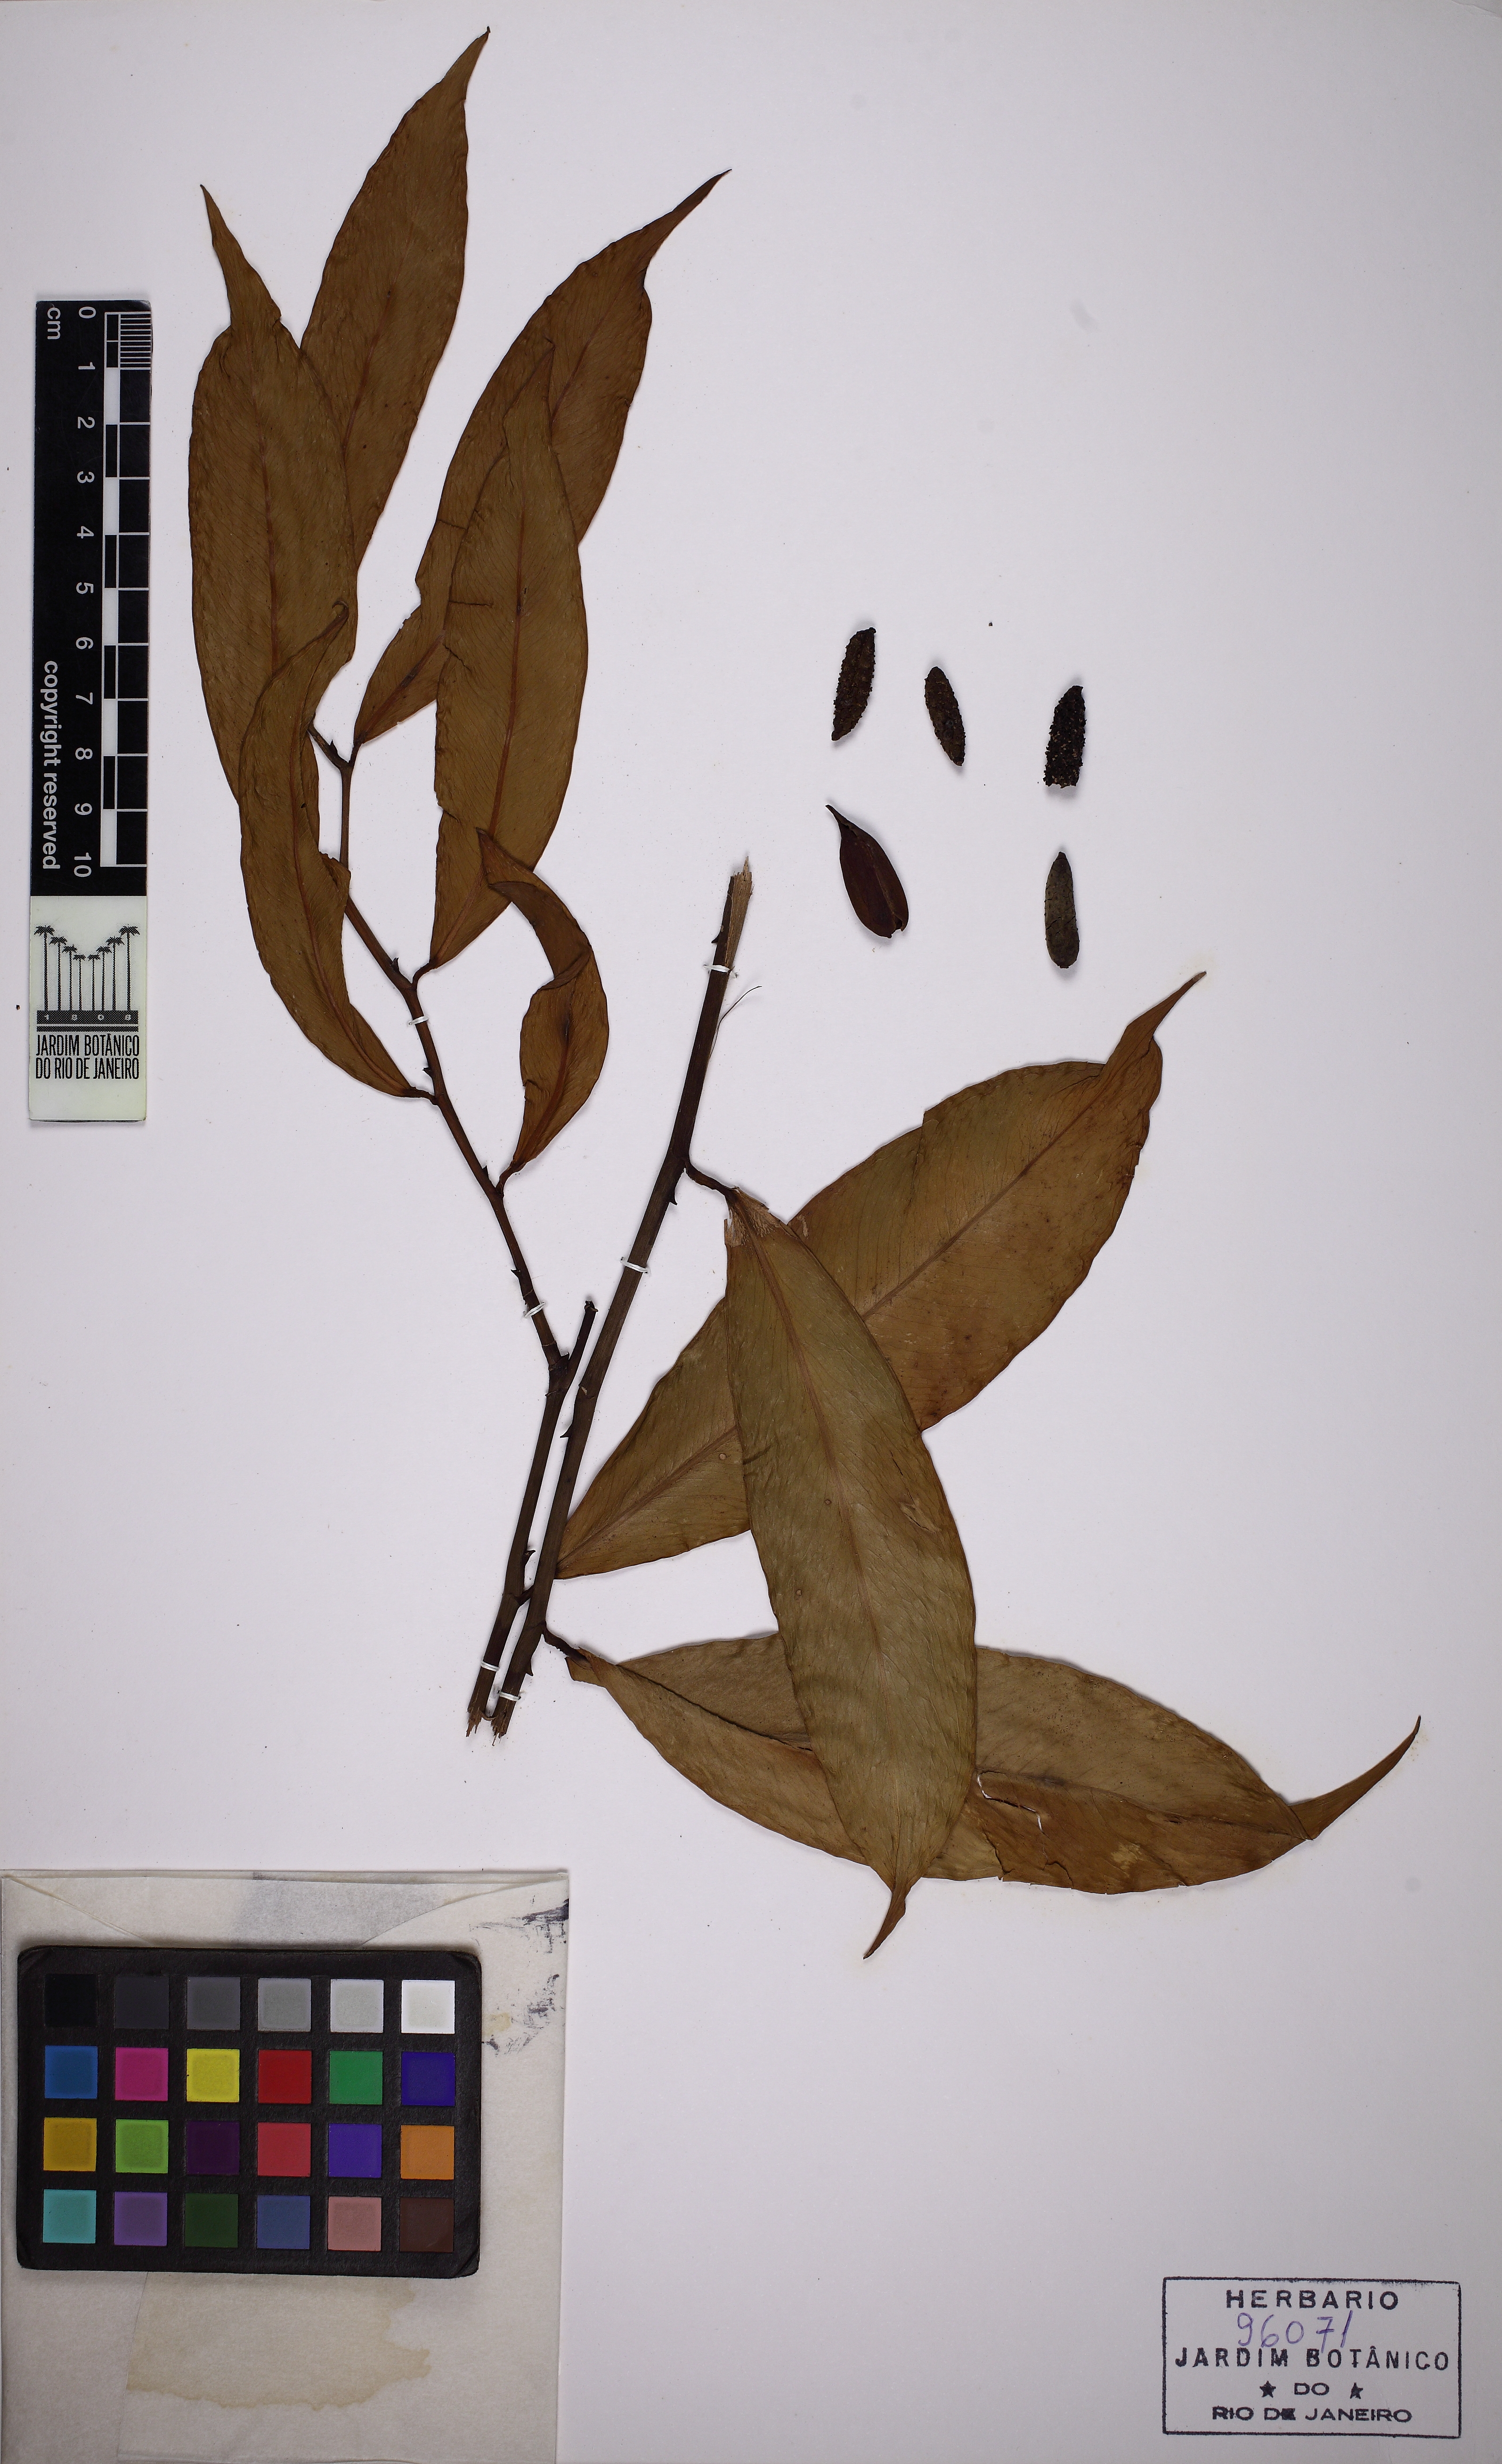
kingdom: Plantae
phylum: Tracheophyta
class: Liliopsida
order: Alismatales
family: Araceae
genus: Heteropsis
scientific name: Heteropsis oblongifolia
